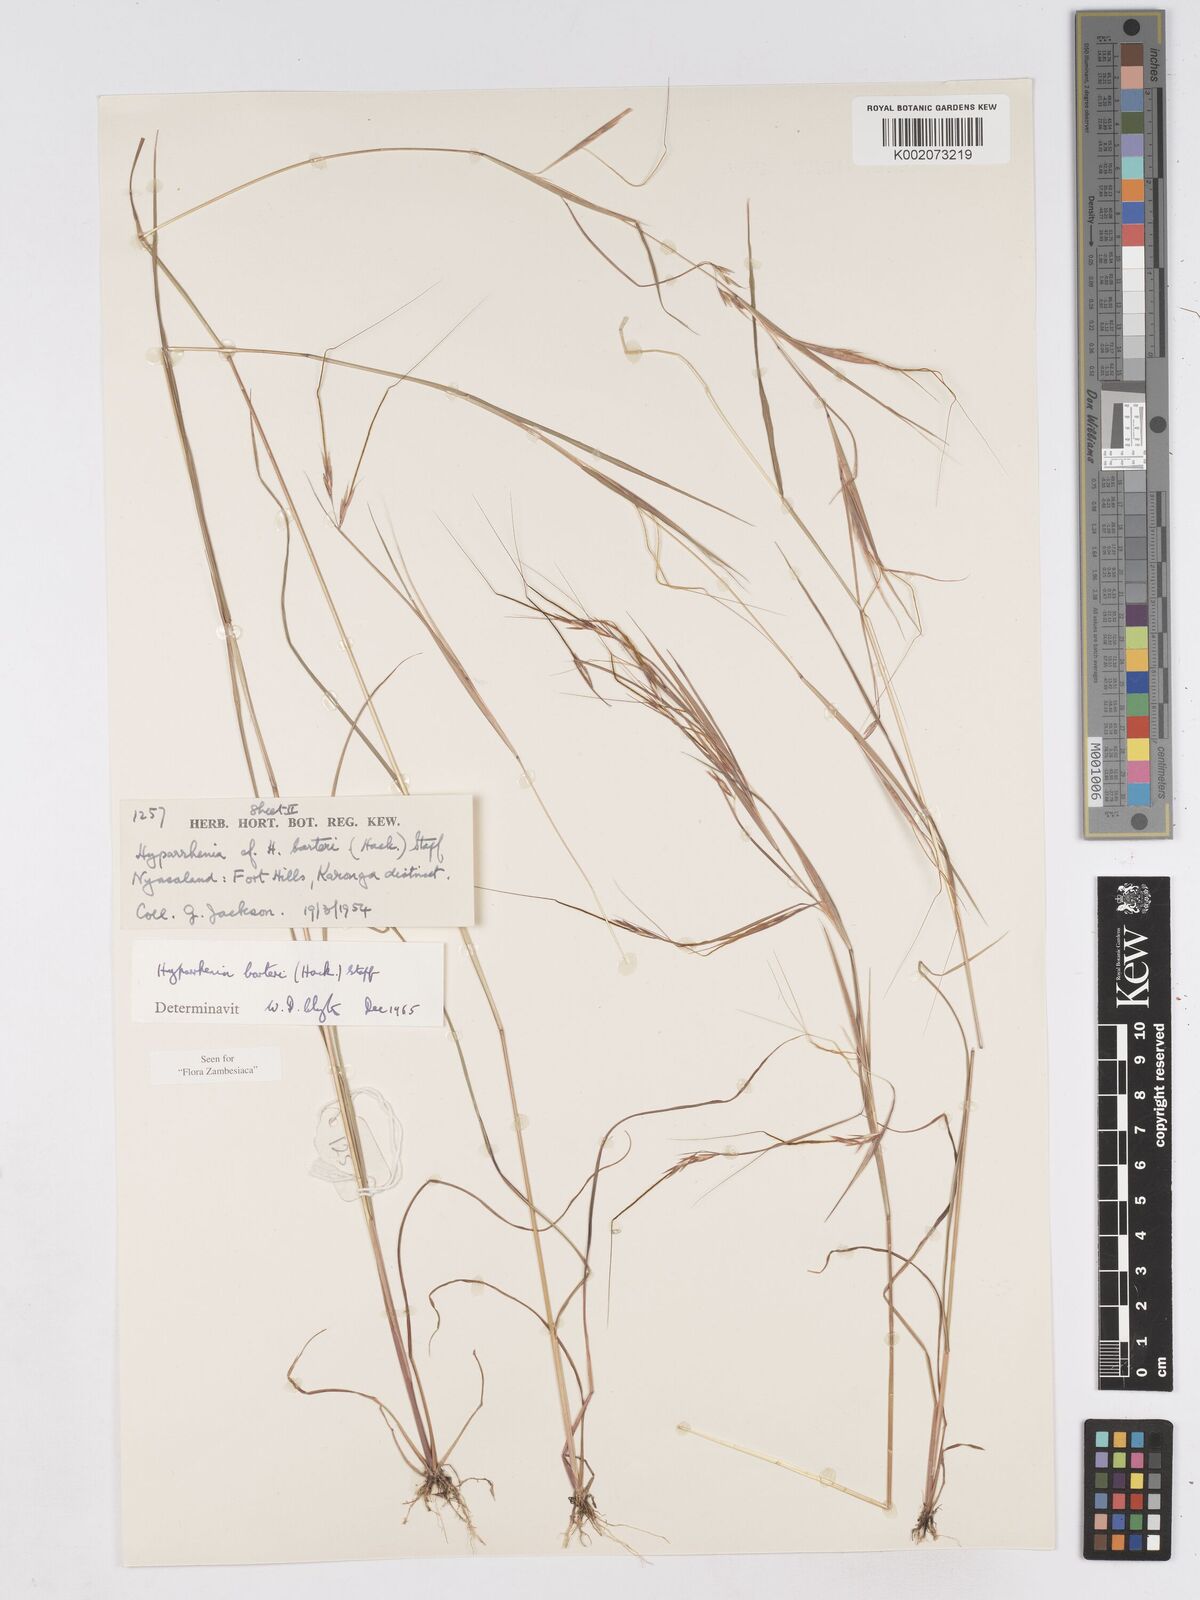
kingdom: Plantae
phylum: Tracheophyta
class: Liliopsida
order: Poales
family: Poaceae
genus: Hyparrhenia
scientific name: Hyparrhenia barteri
